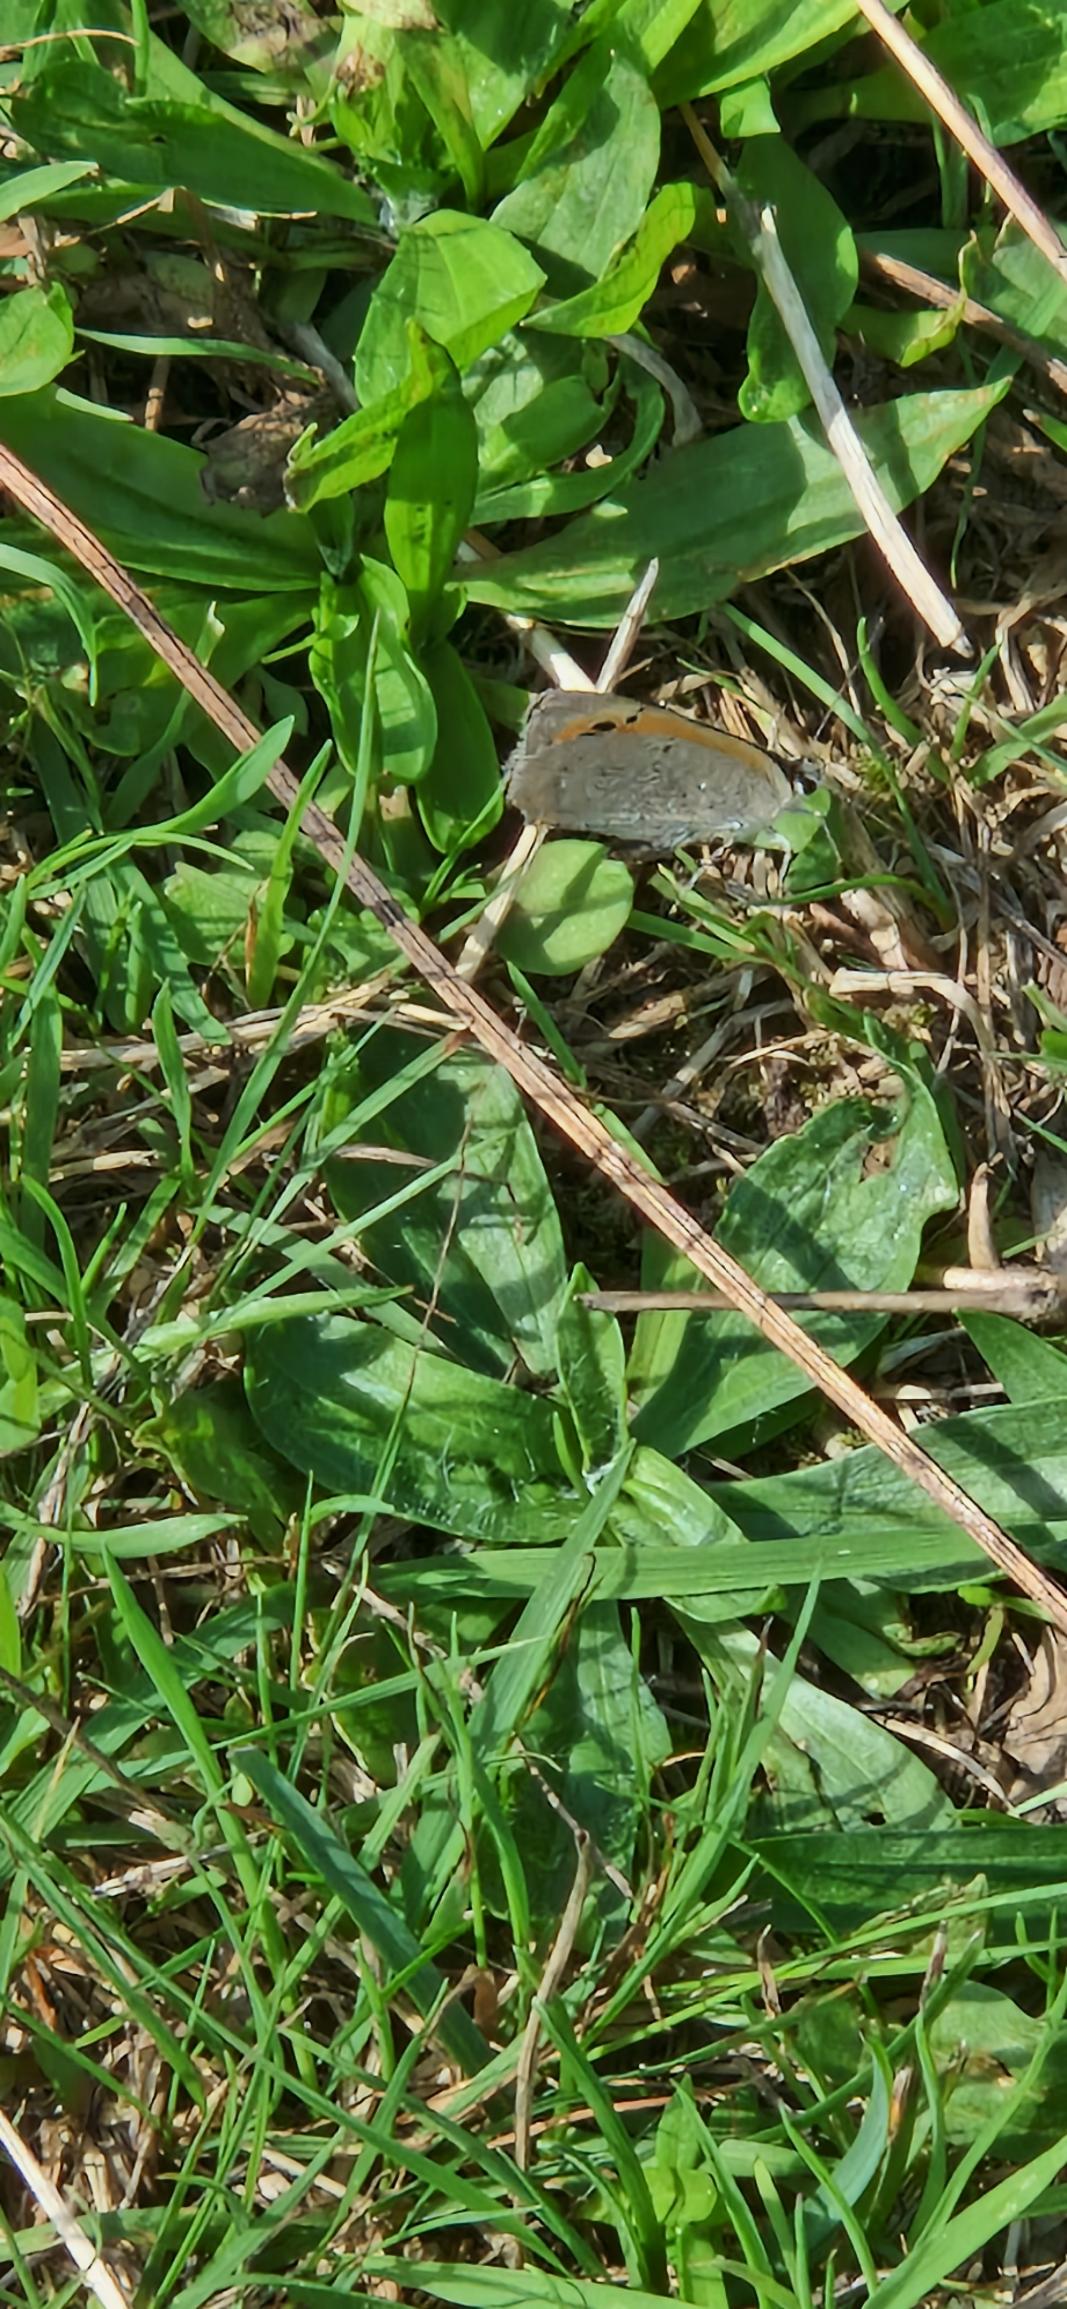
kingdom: Animalia
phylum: Arthropoda
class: Insecta
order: Lepidoptera
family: Lycaenidae
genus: Lycaena
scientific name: Lycaena phlaeas
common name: Lille ildfugl
